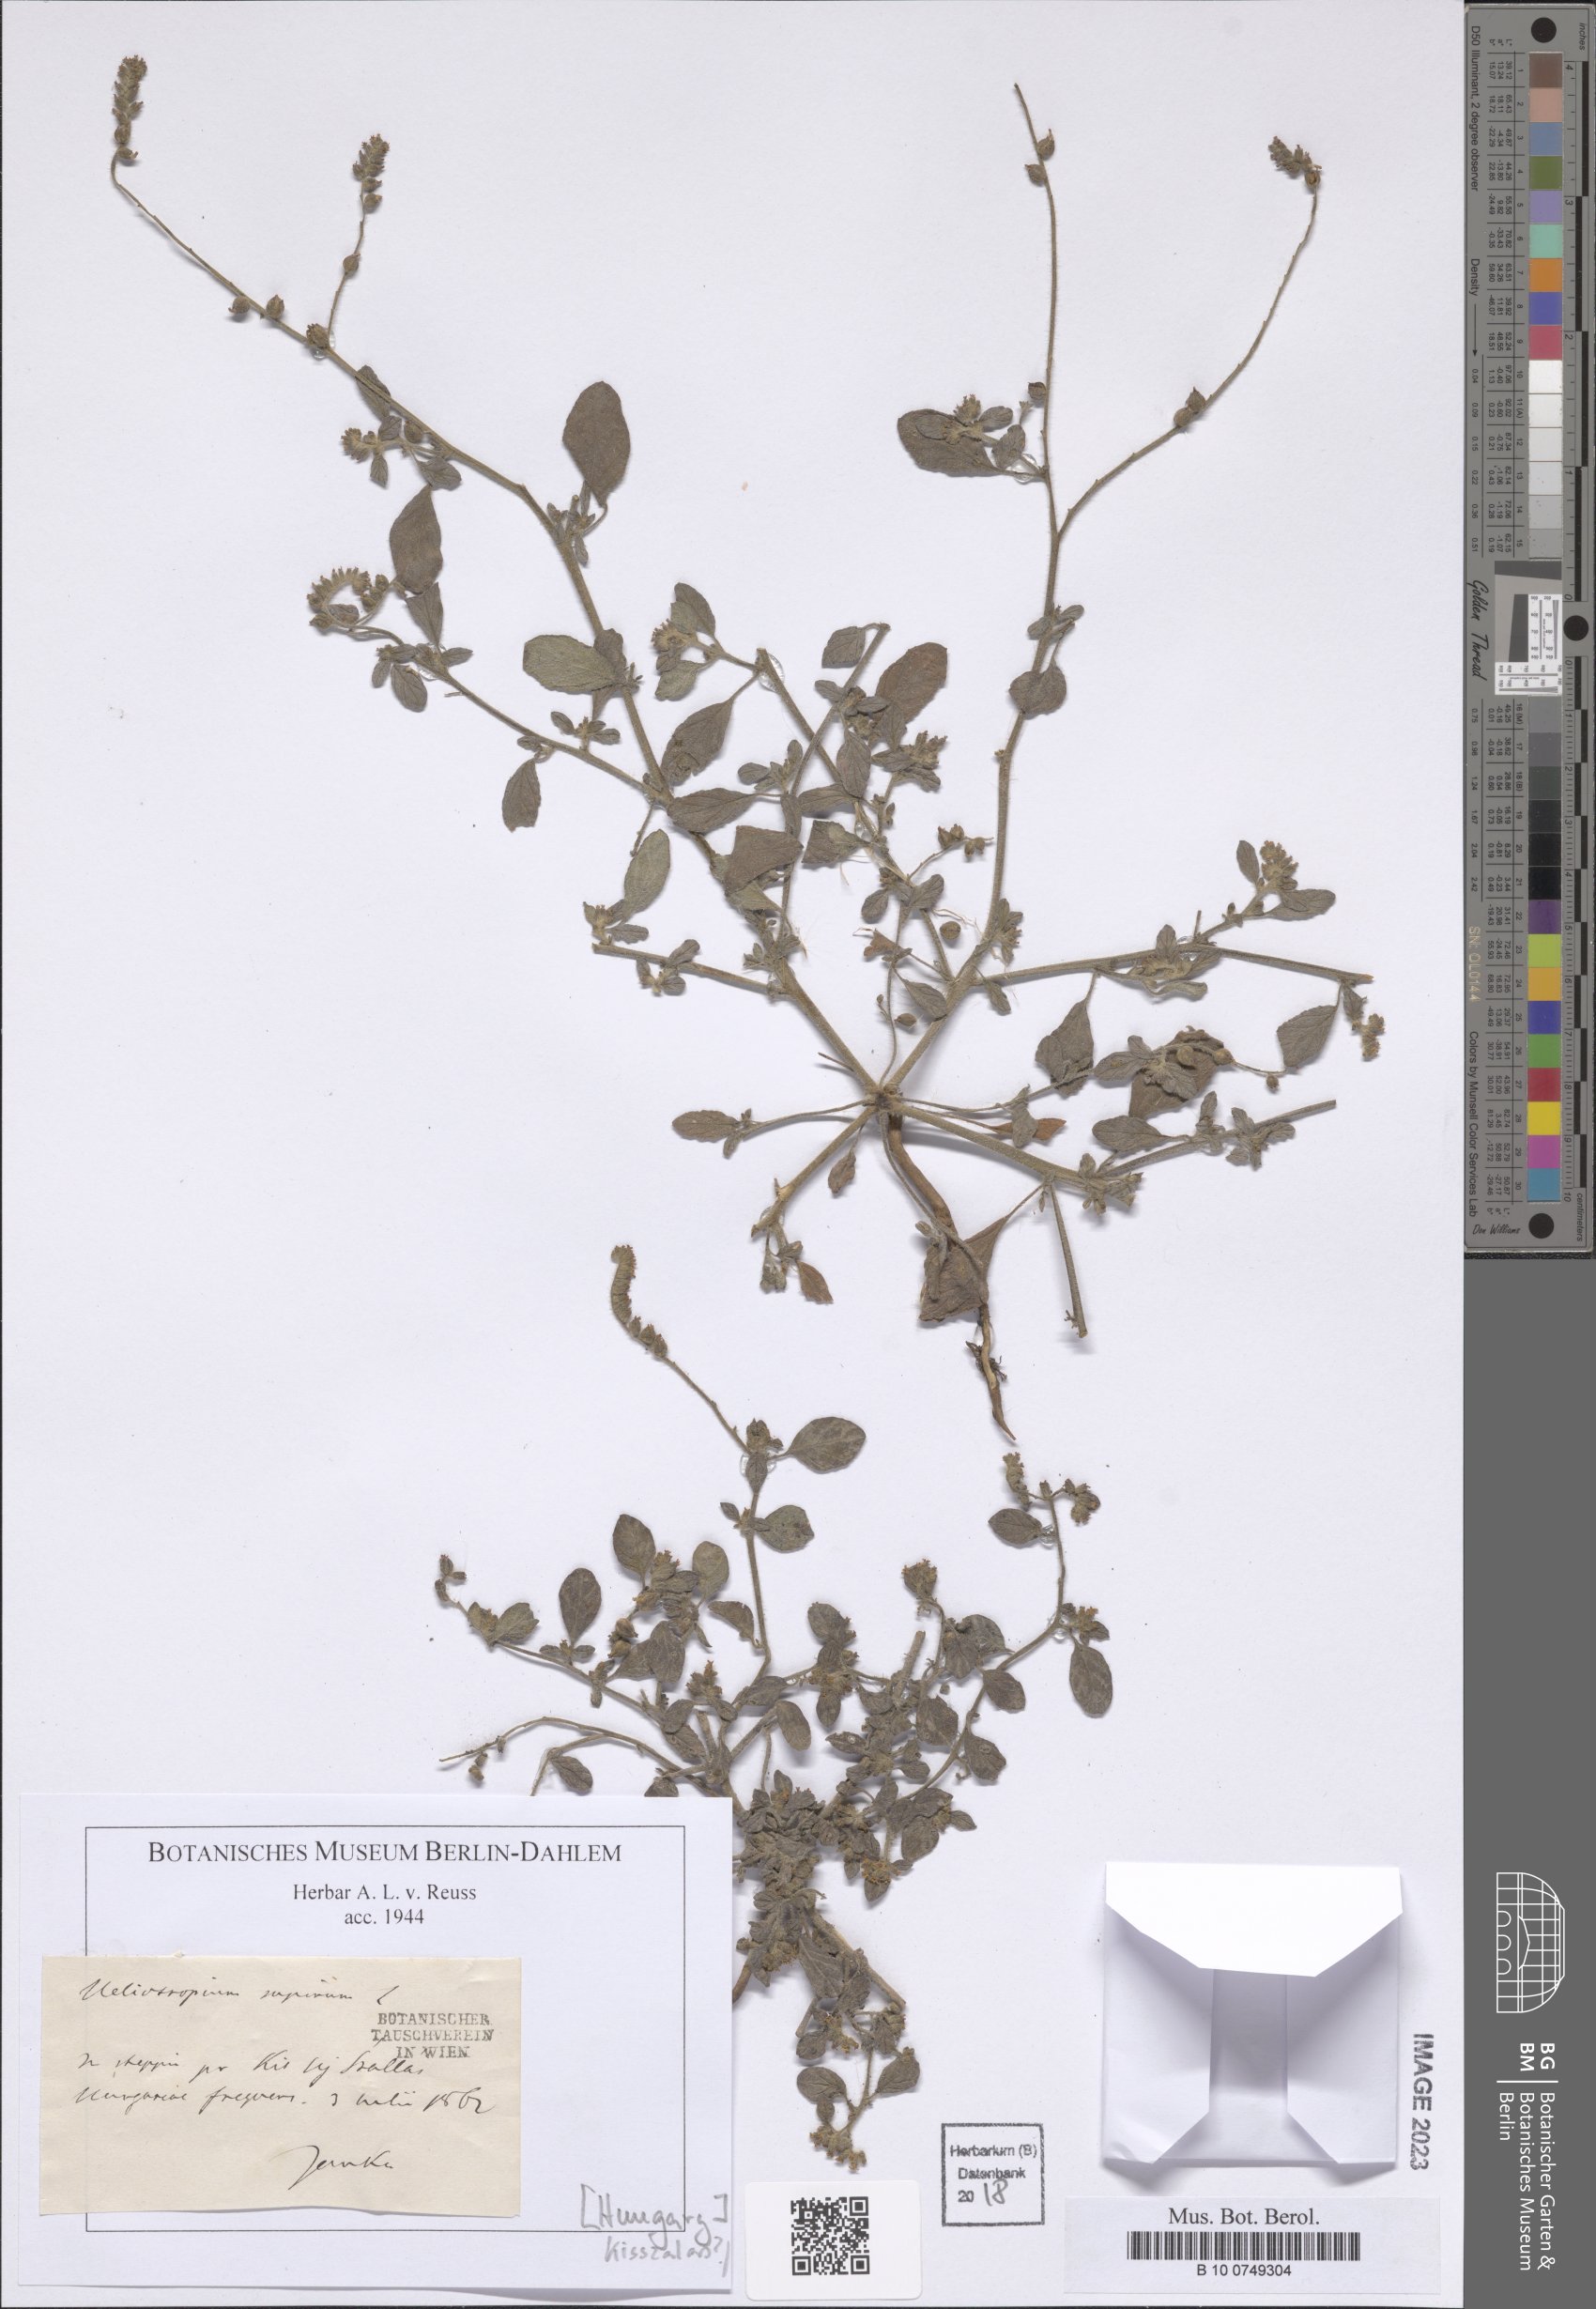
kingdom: Plantae
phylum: Tracheophyta
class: Magnoliopsida
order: Boraginales
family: Heliotropiaceae
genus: Heliotropium
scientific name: Heliotropium supinum
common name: Dwarf heliotrope
